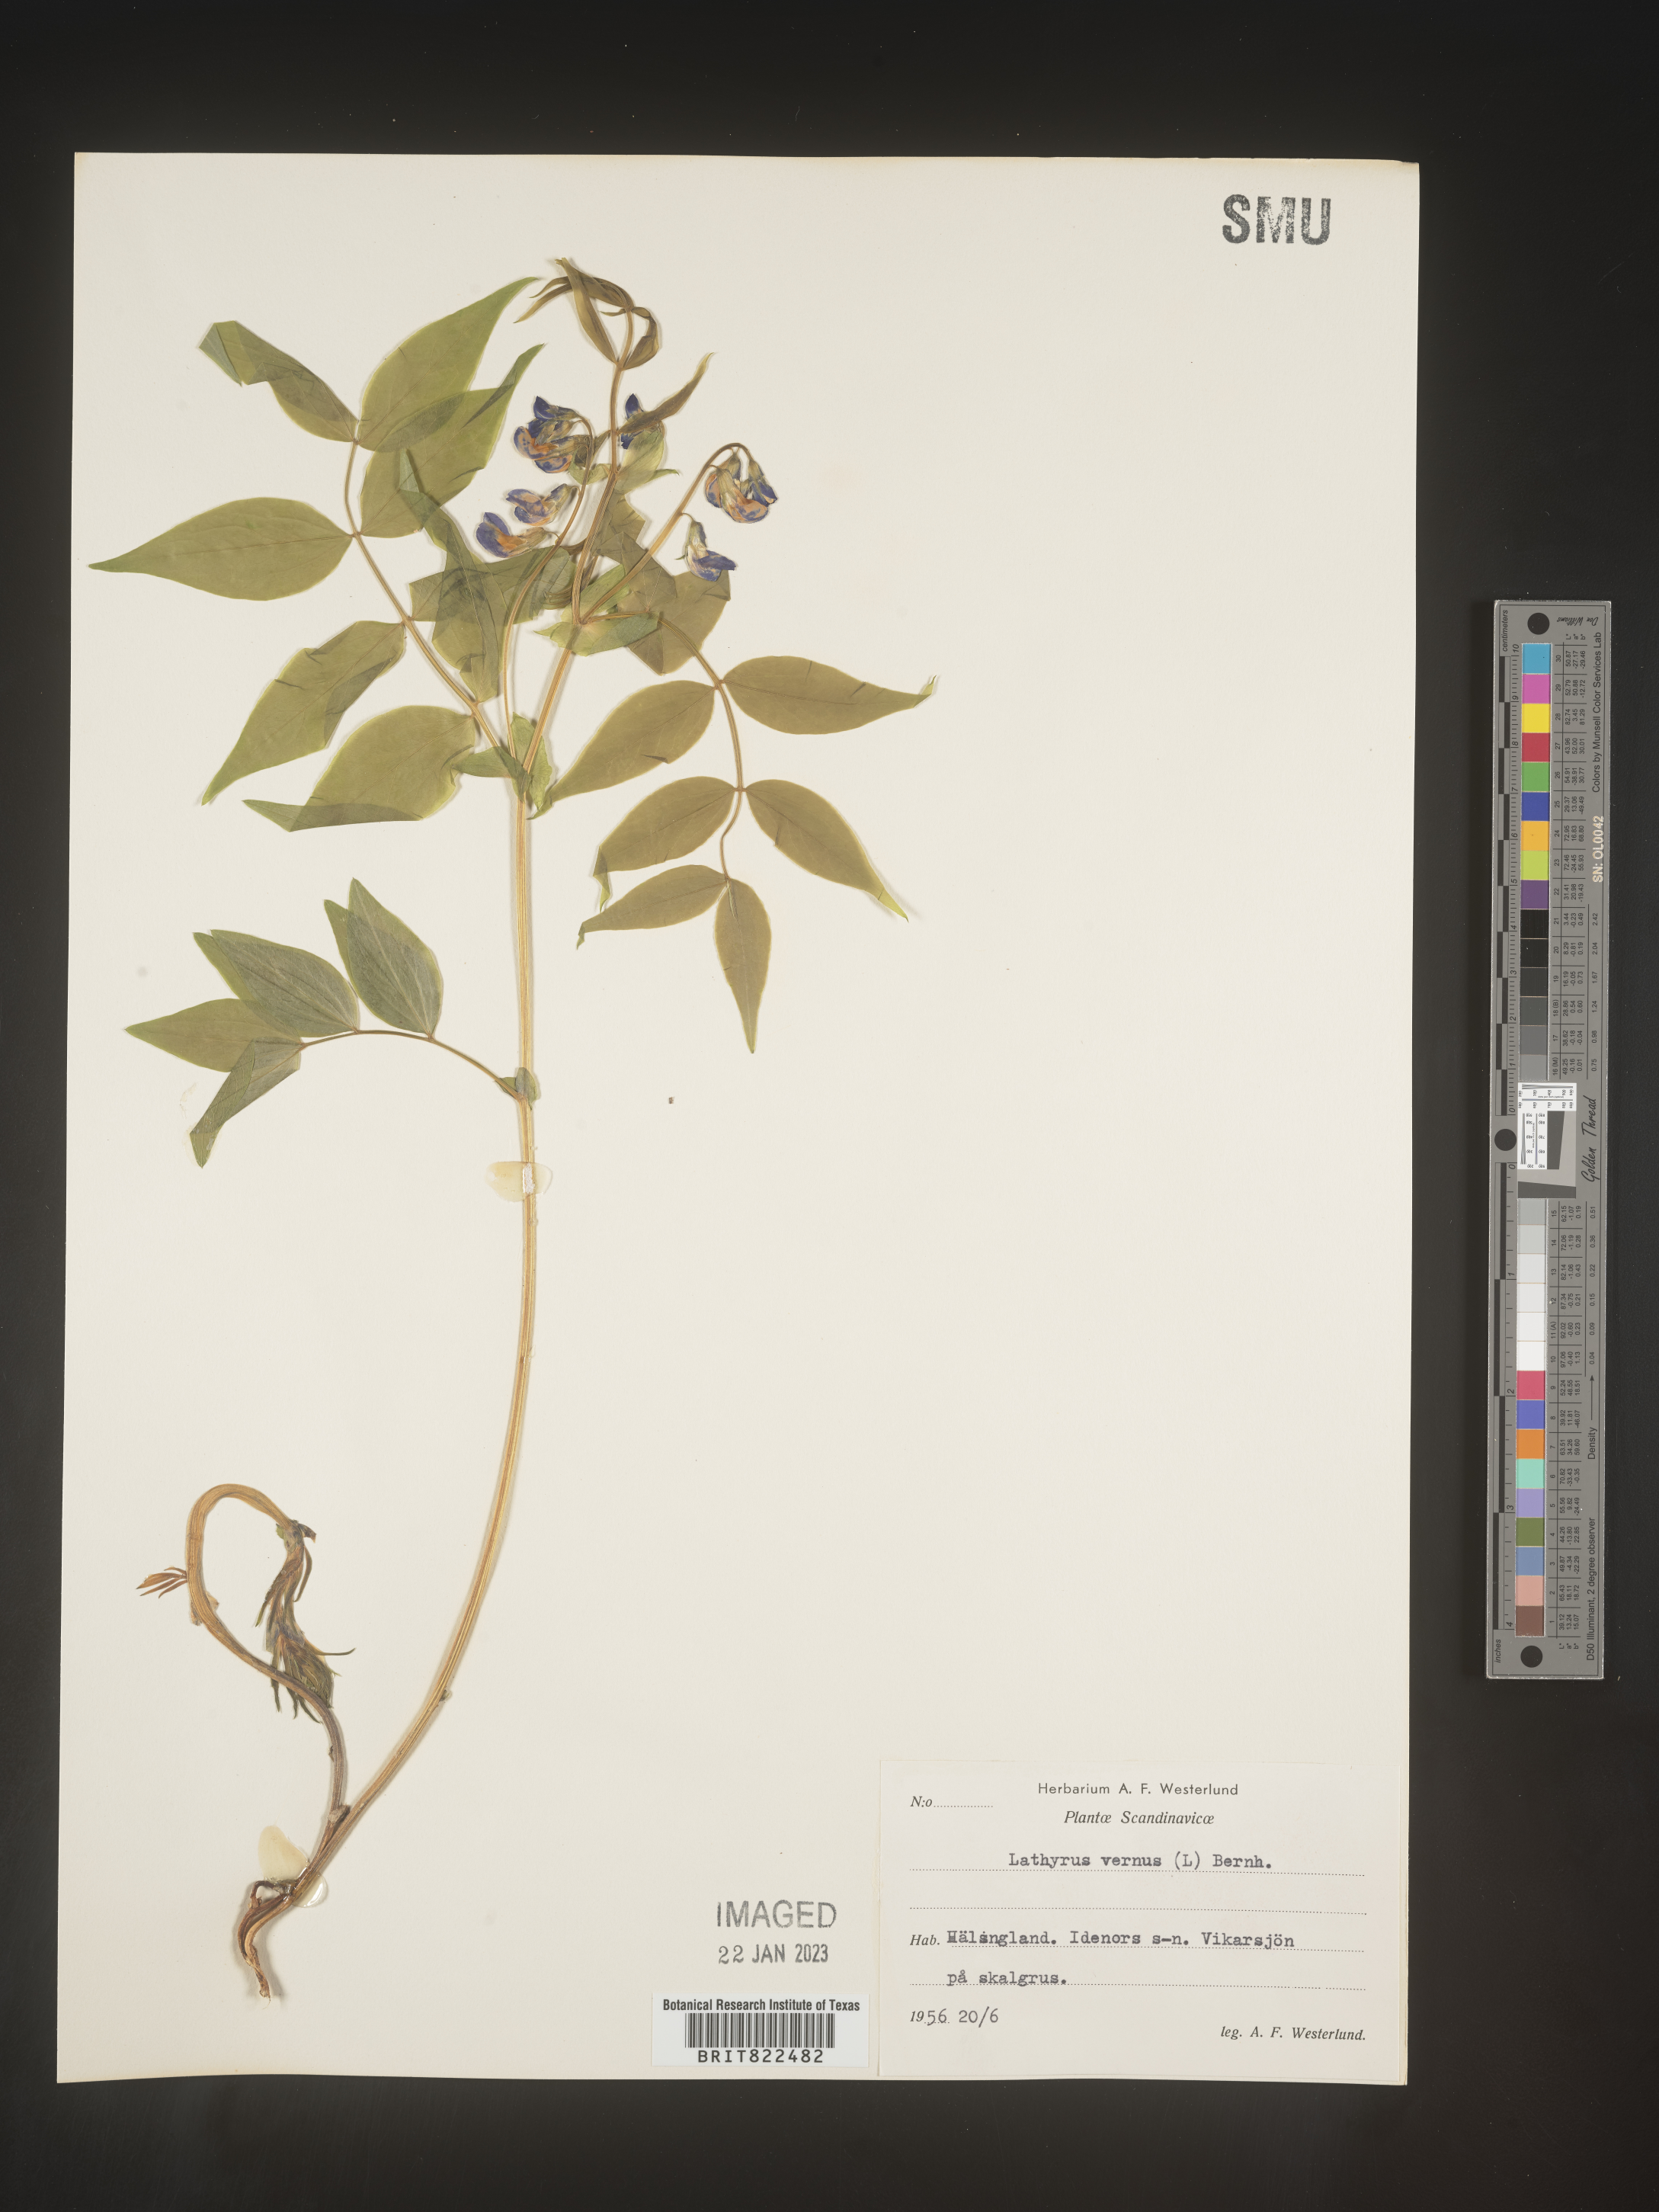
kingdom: Plantae
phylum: Tracheophyta
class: Magnoliopsida
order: Fabales
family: Fabaceae
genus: Lathyrus
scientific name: Lathyrus
